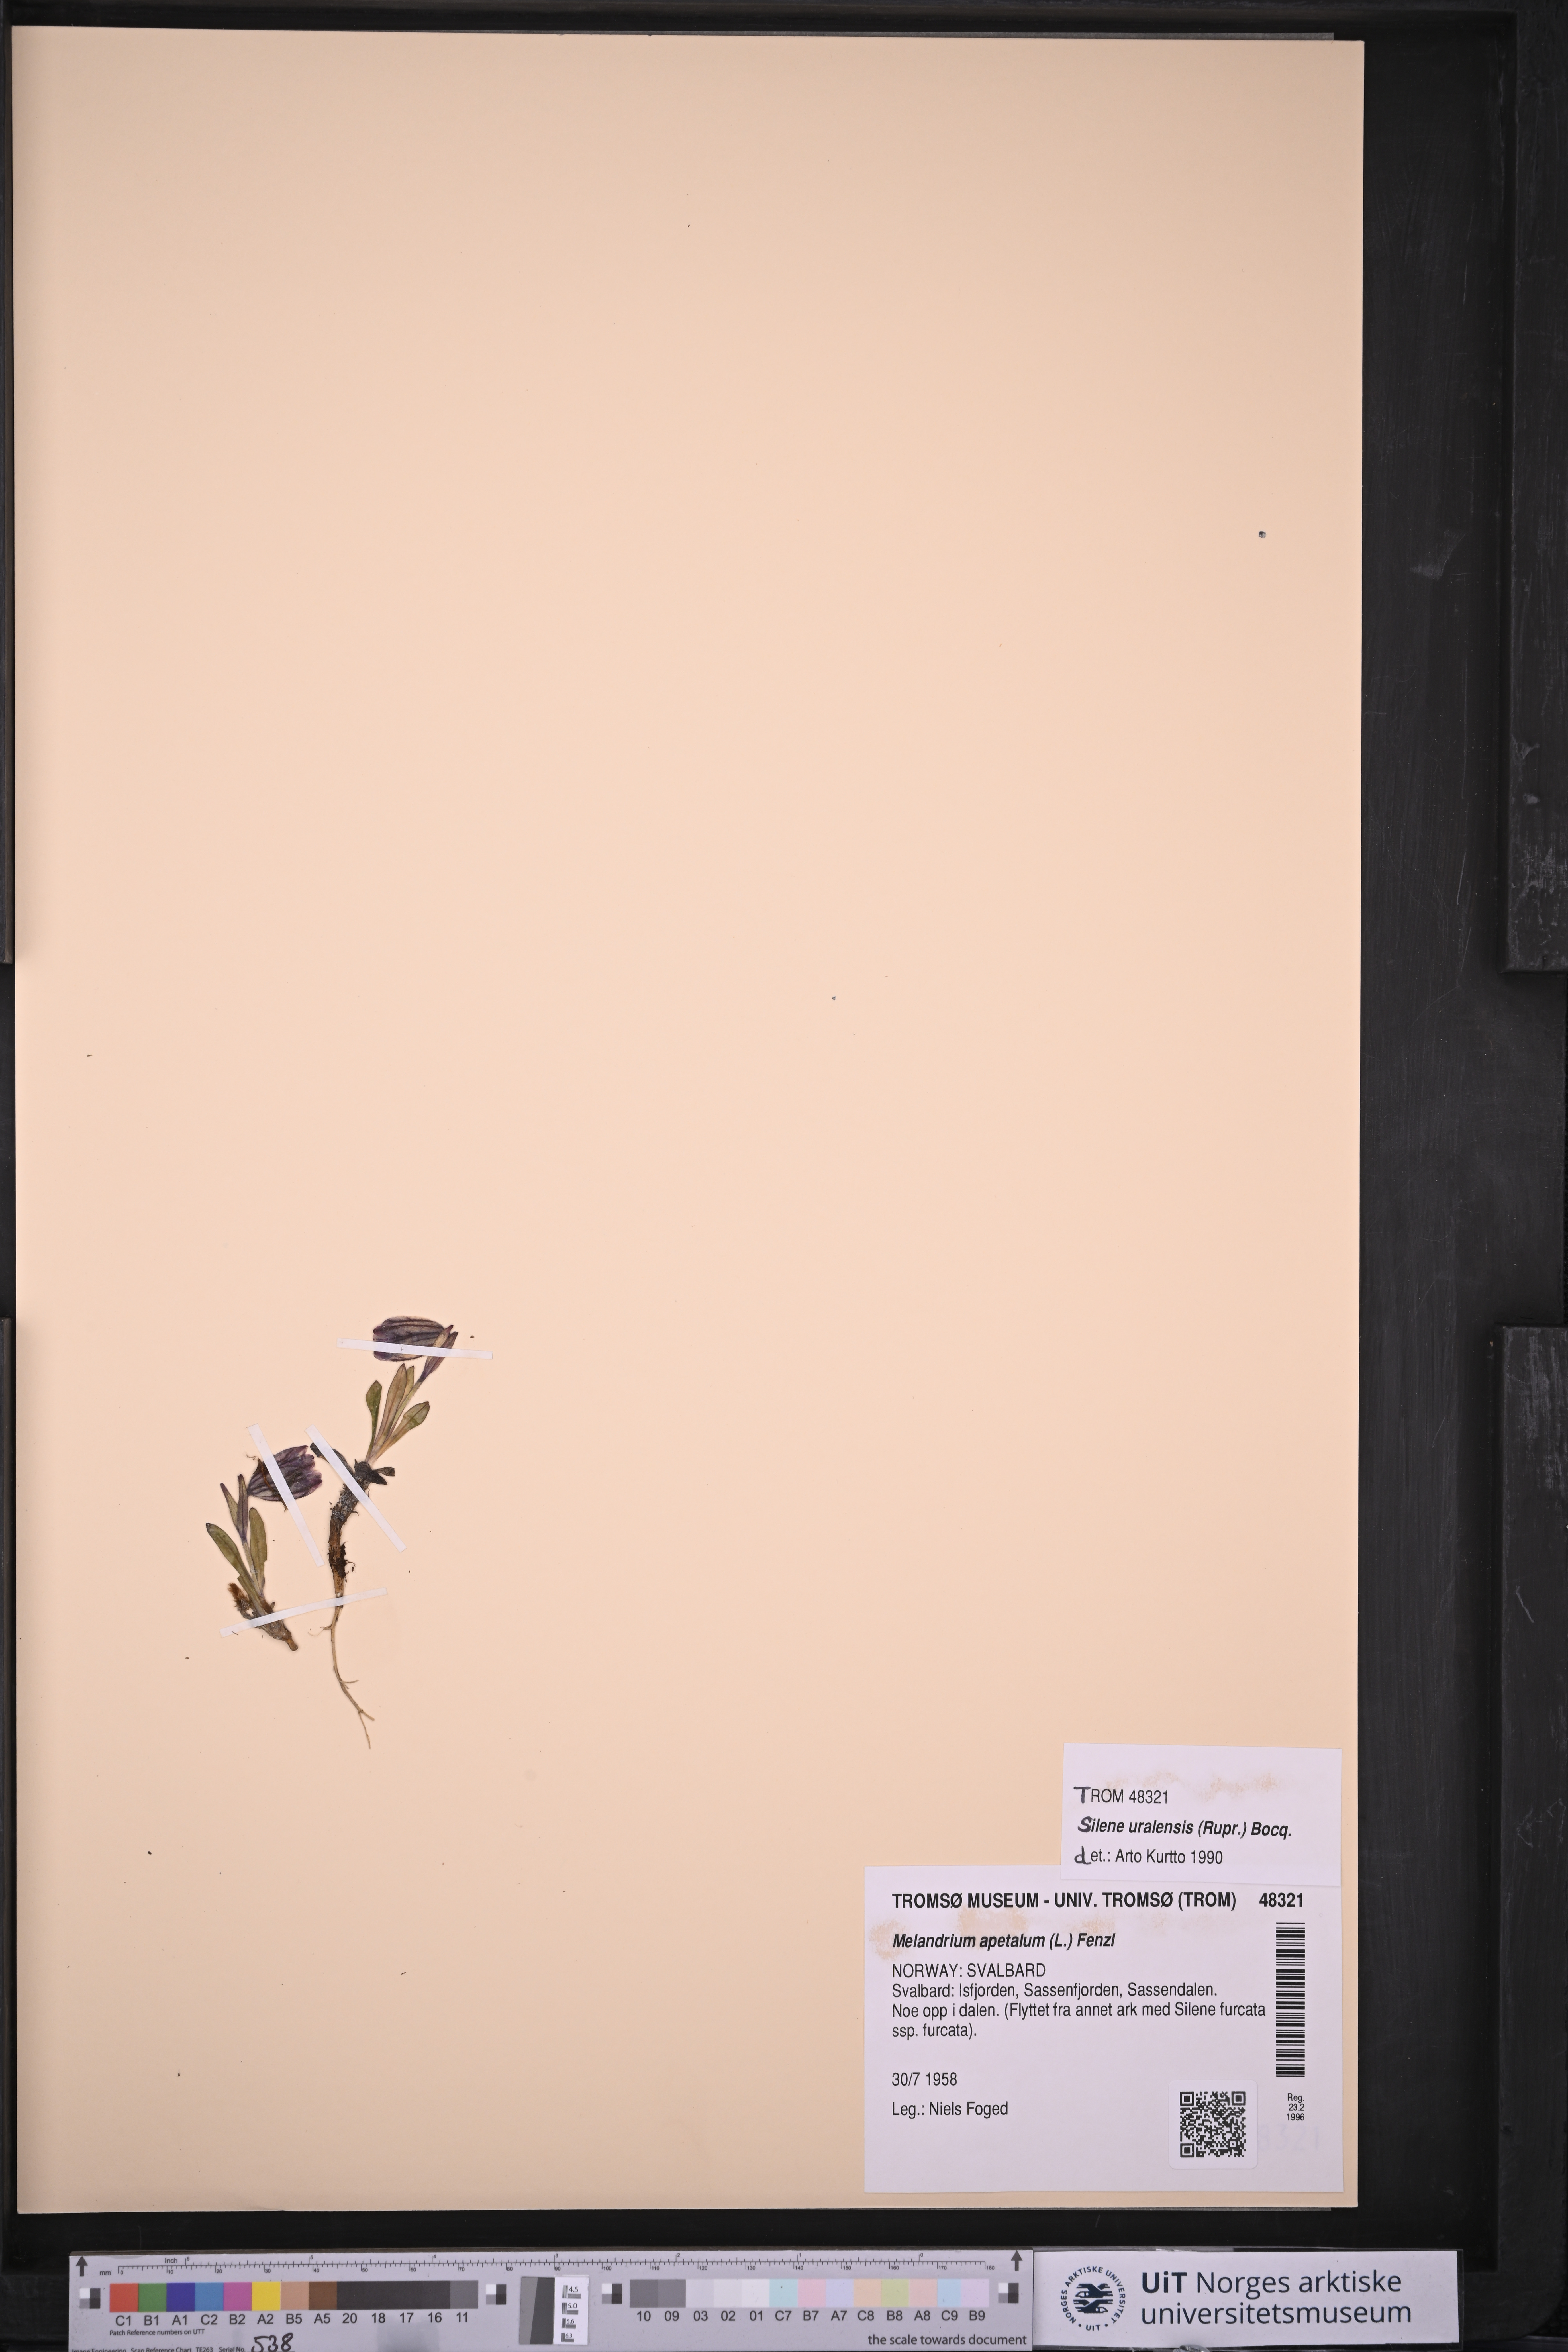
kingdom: Plantae
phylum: Tracheophyta
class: Magnoliopsida
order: Caryophyllales
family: Caryophyllaceae
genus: Silene
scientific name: Silene uralensis
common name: Nodding campion
